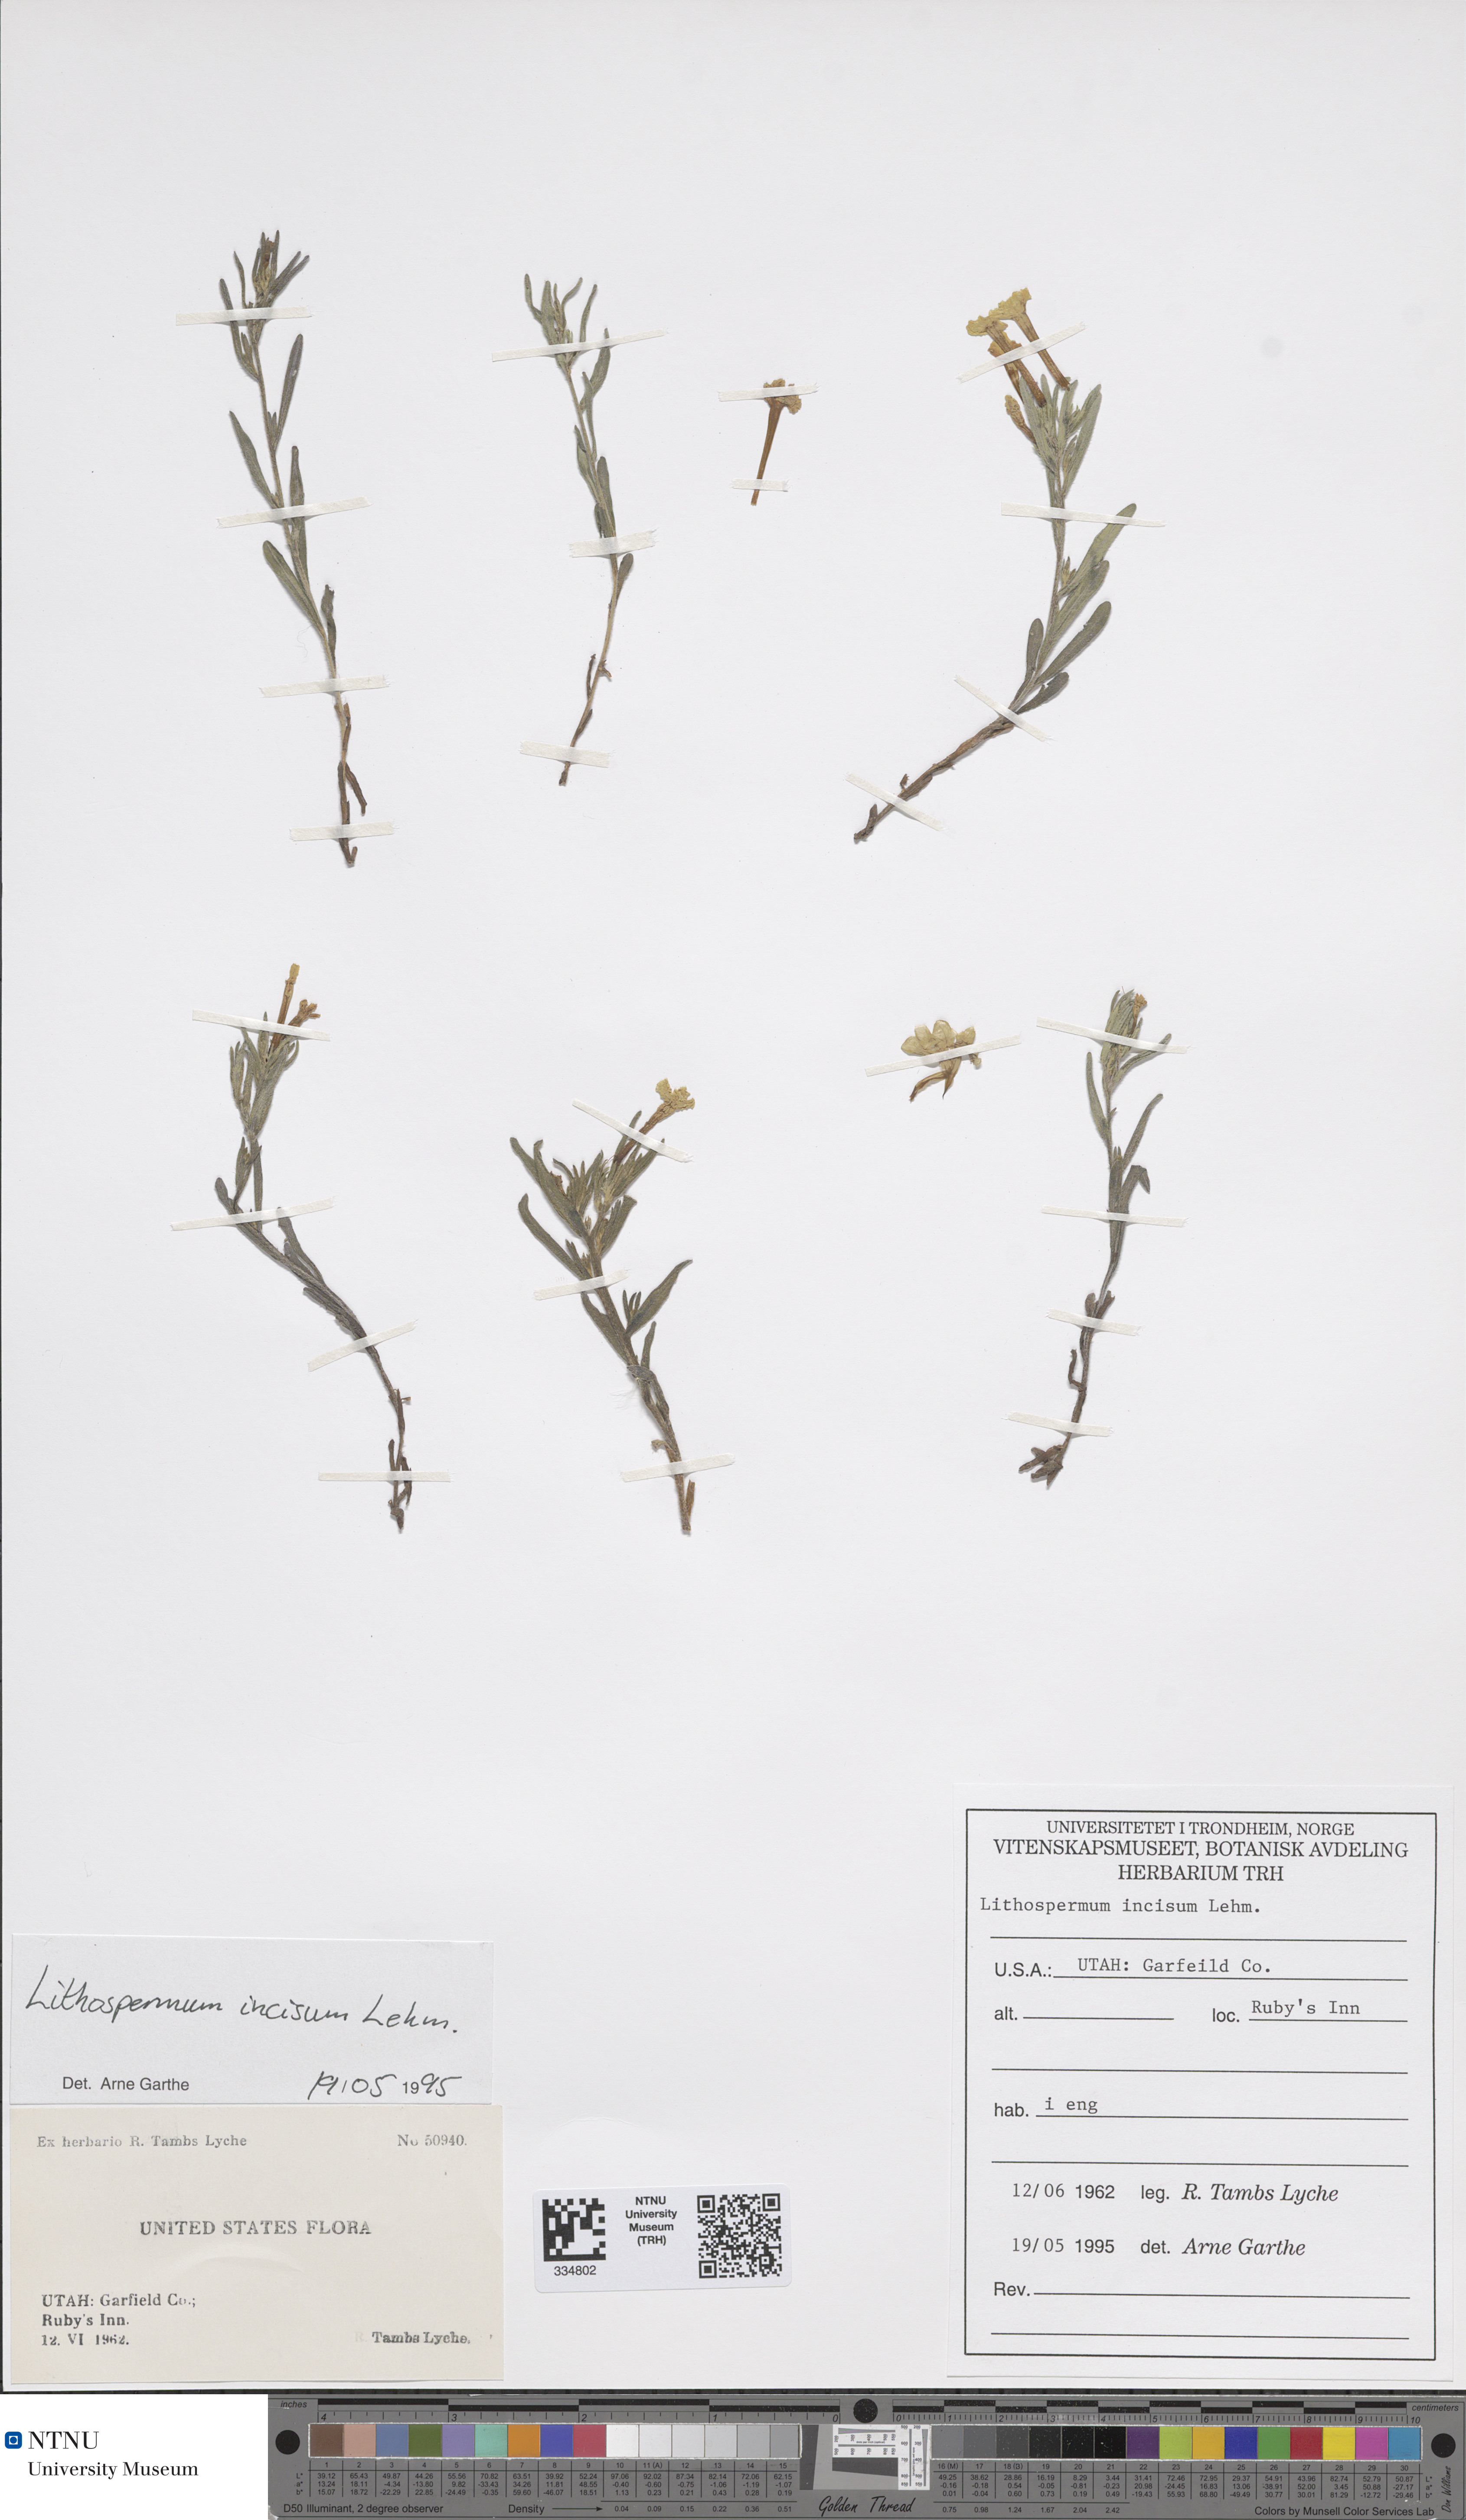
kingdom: Plantae
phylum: Tracheophyta
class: Magnoliopsida
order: Boraginales
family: Boraginaceae
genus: Lithospermum
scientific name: Lithospermum incisum
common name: Fringed gromwell
